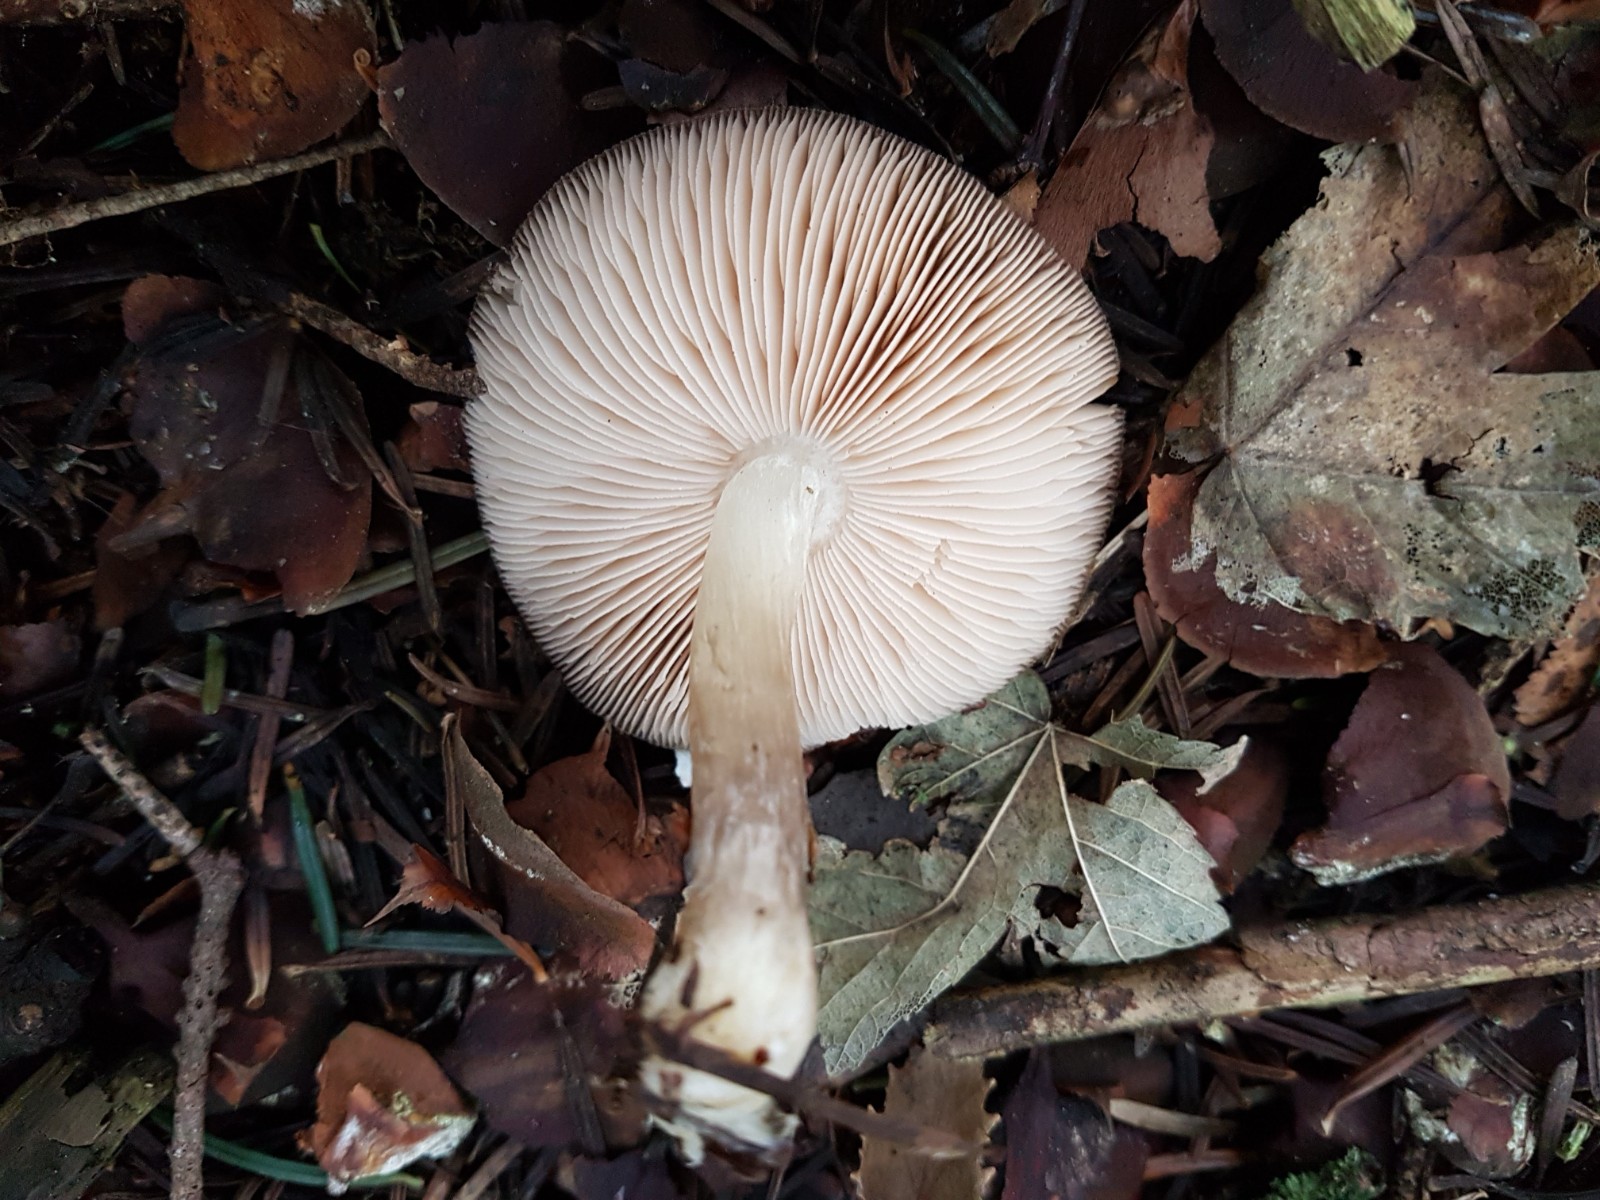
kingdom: Fungi
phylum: Basidiomycota
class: Agaricomycetes
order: Agaricales
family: Pluteaceae
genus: Pluteus
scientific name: Pluteus
